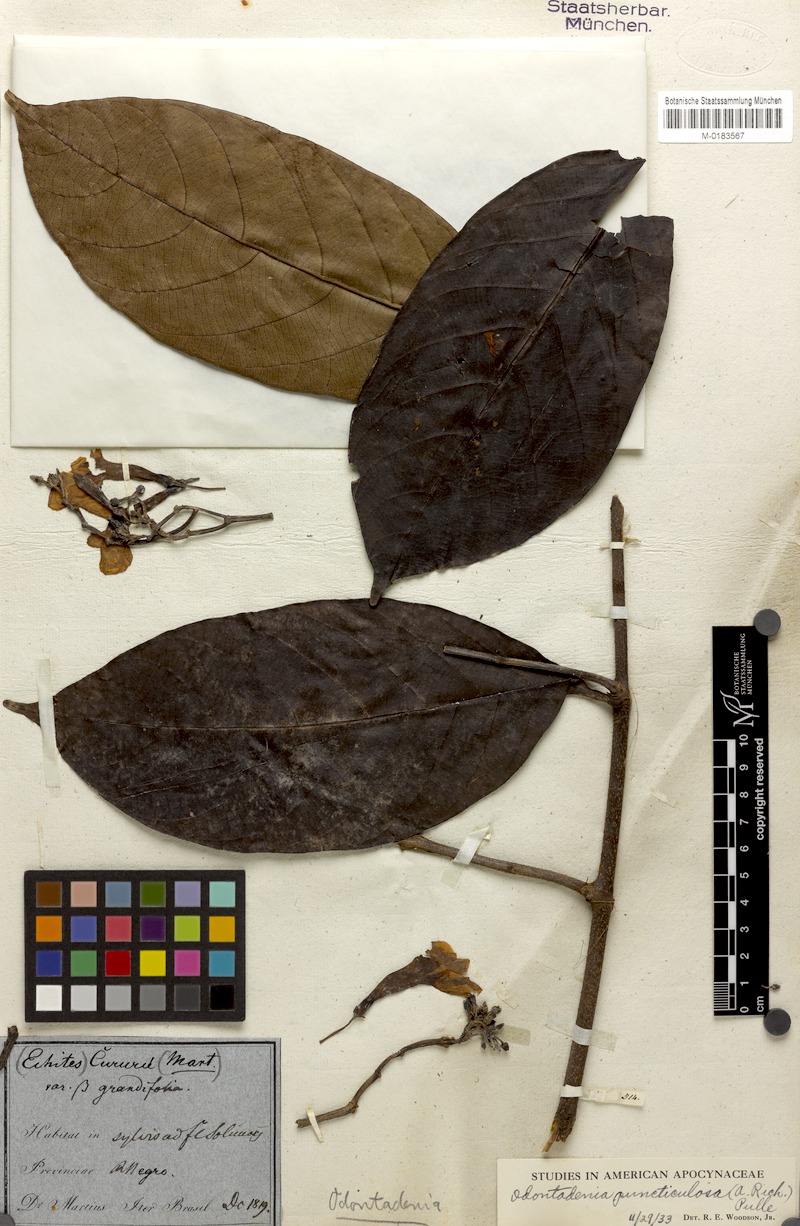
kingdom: Plantae
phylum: Tracheophyta
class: Magnoliopsida
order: Gentianales
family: Apocynaceae
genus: Odontadenia
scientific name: Odontadenia puncticulosa
